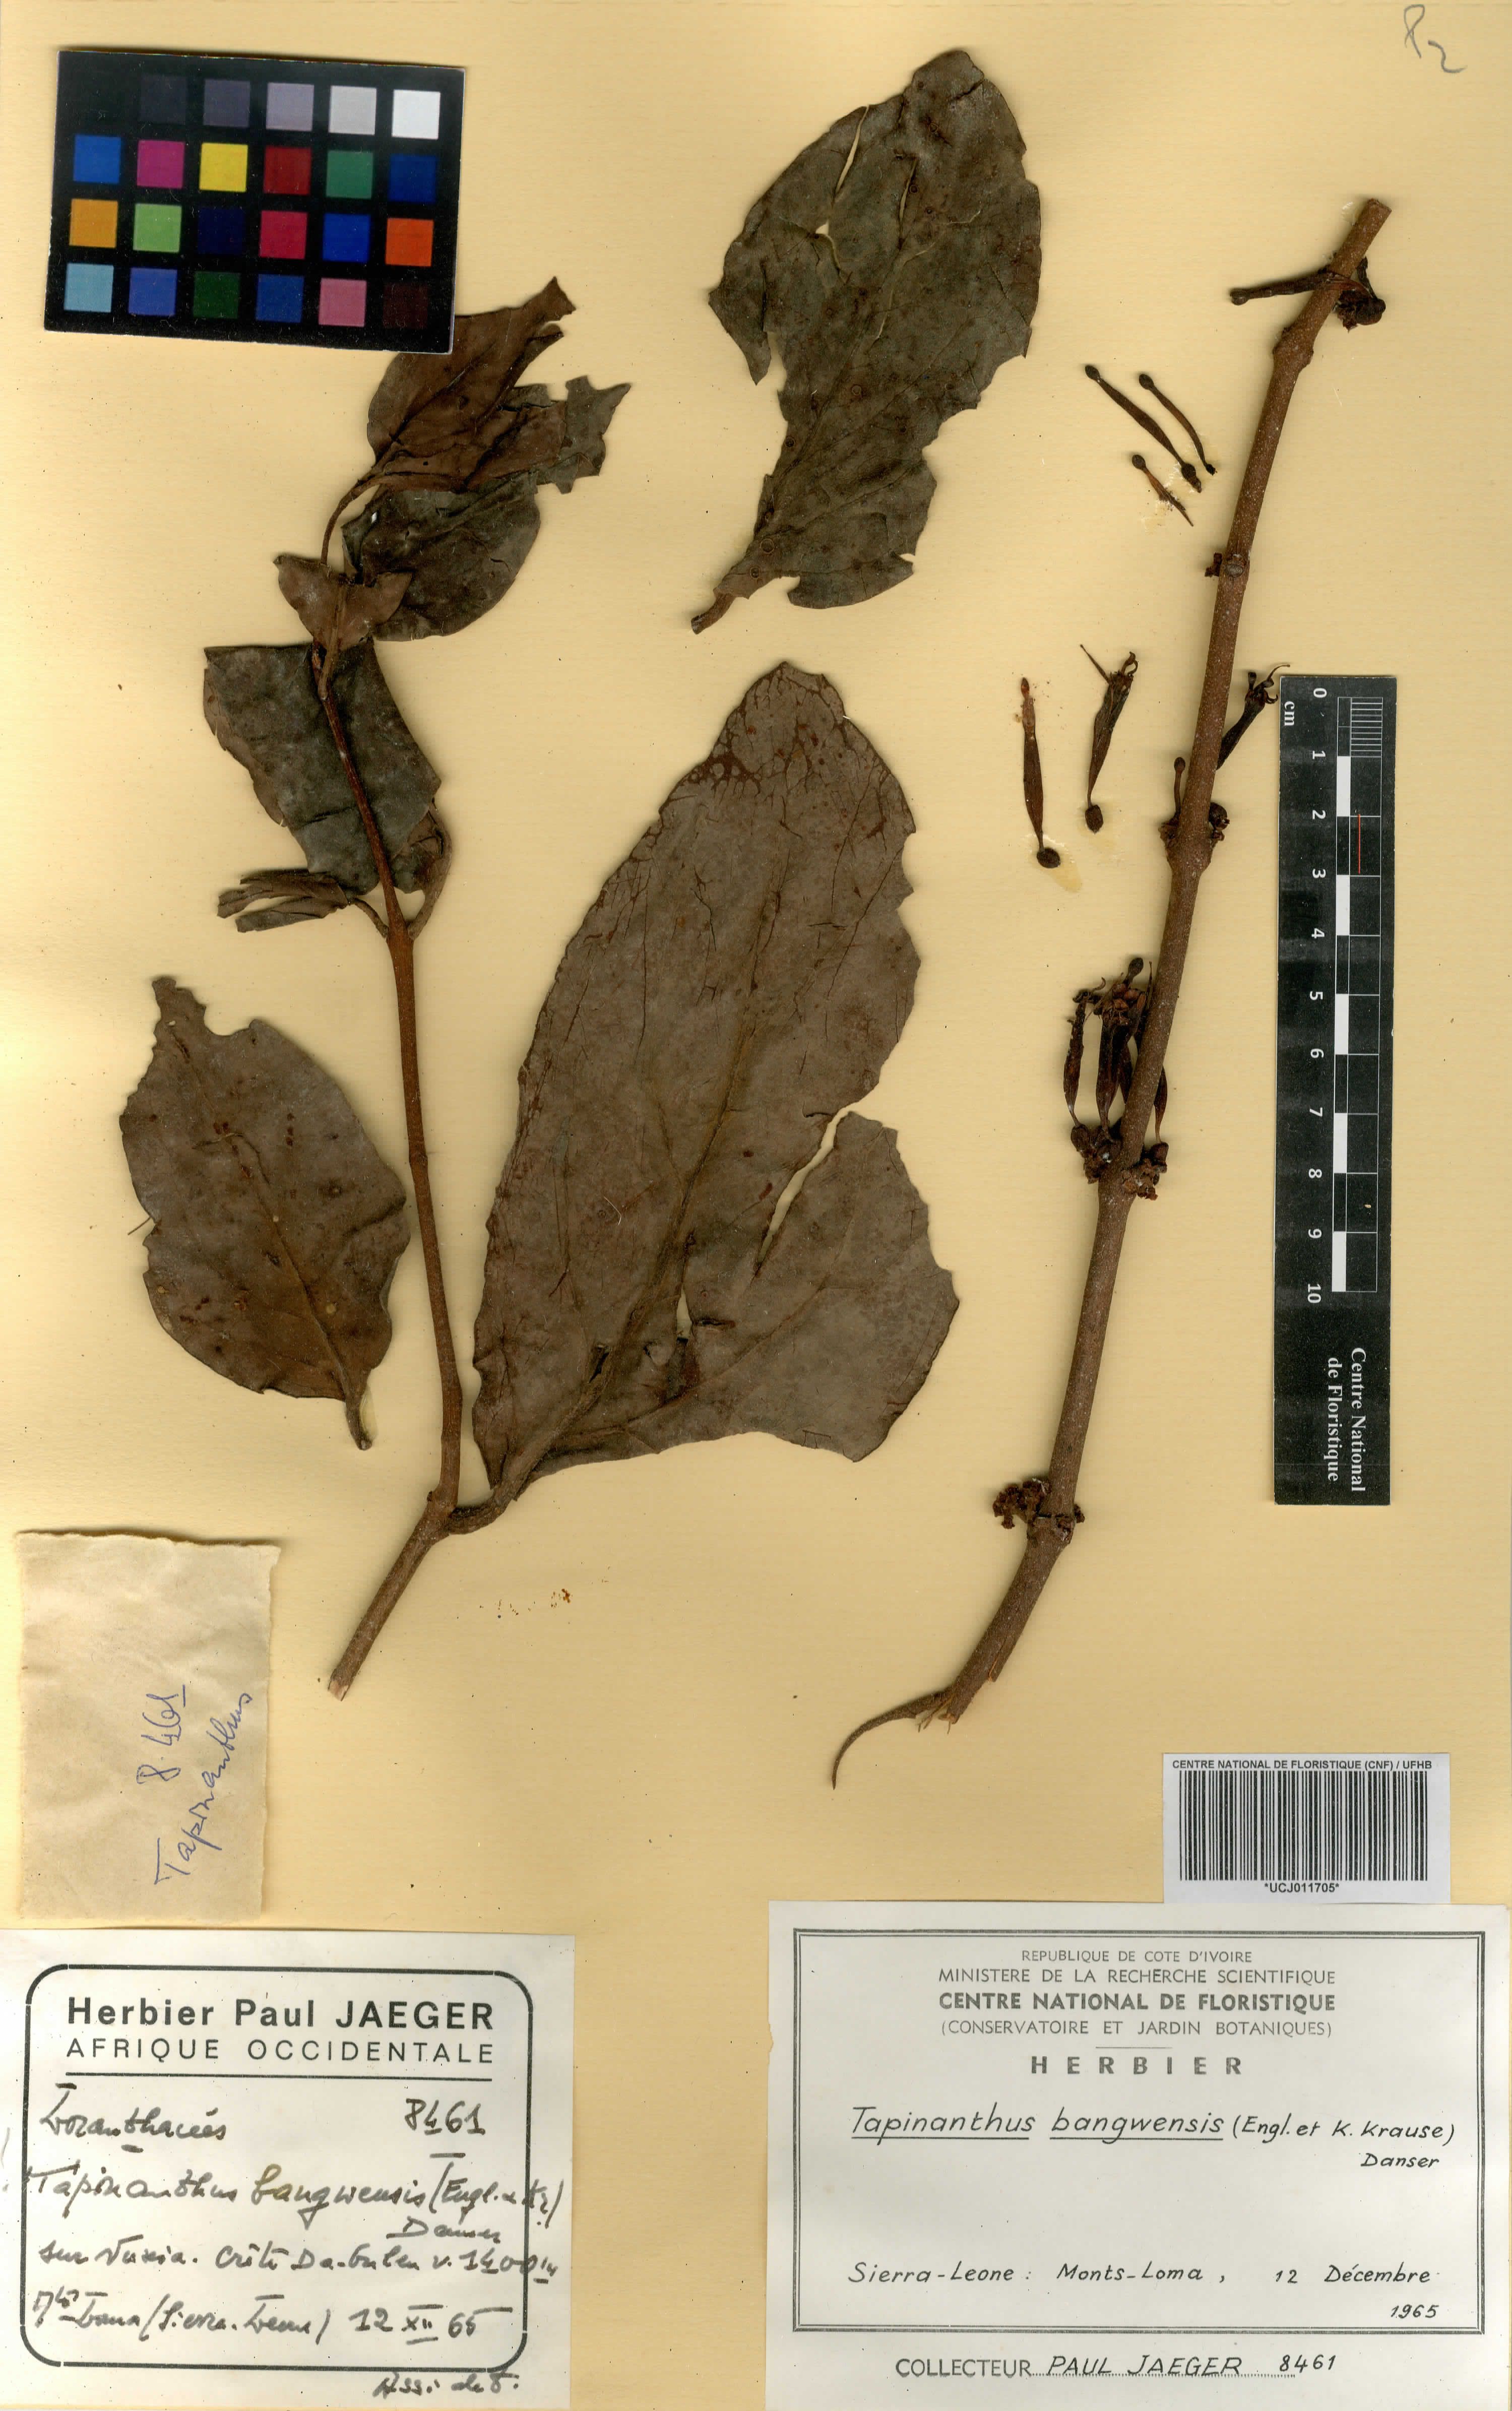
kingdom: Plantae
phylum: Tracheophyta
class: Magnoliopsida
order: Santalales
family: Loranthaceae
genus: Tapinanthus
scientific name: Tapinanthus bangwensis
